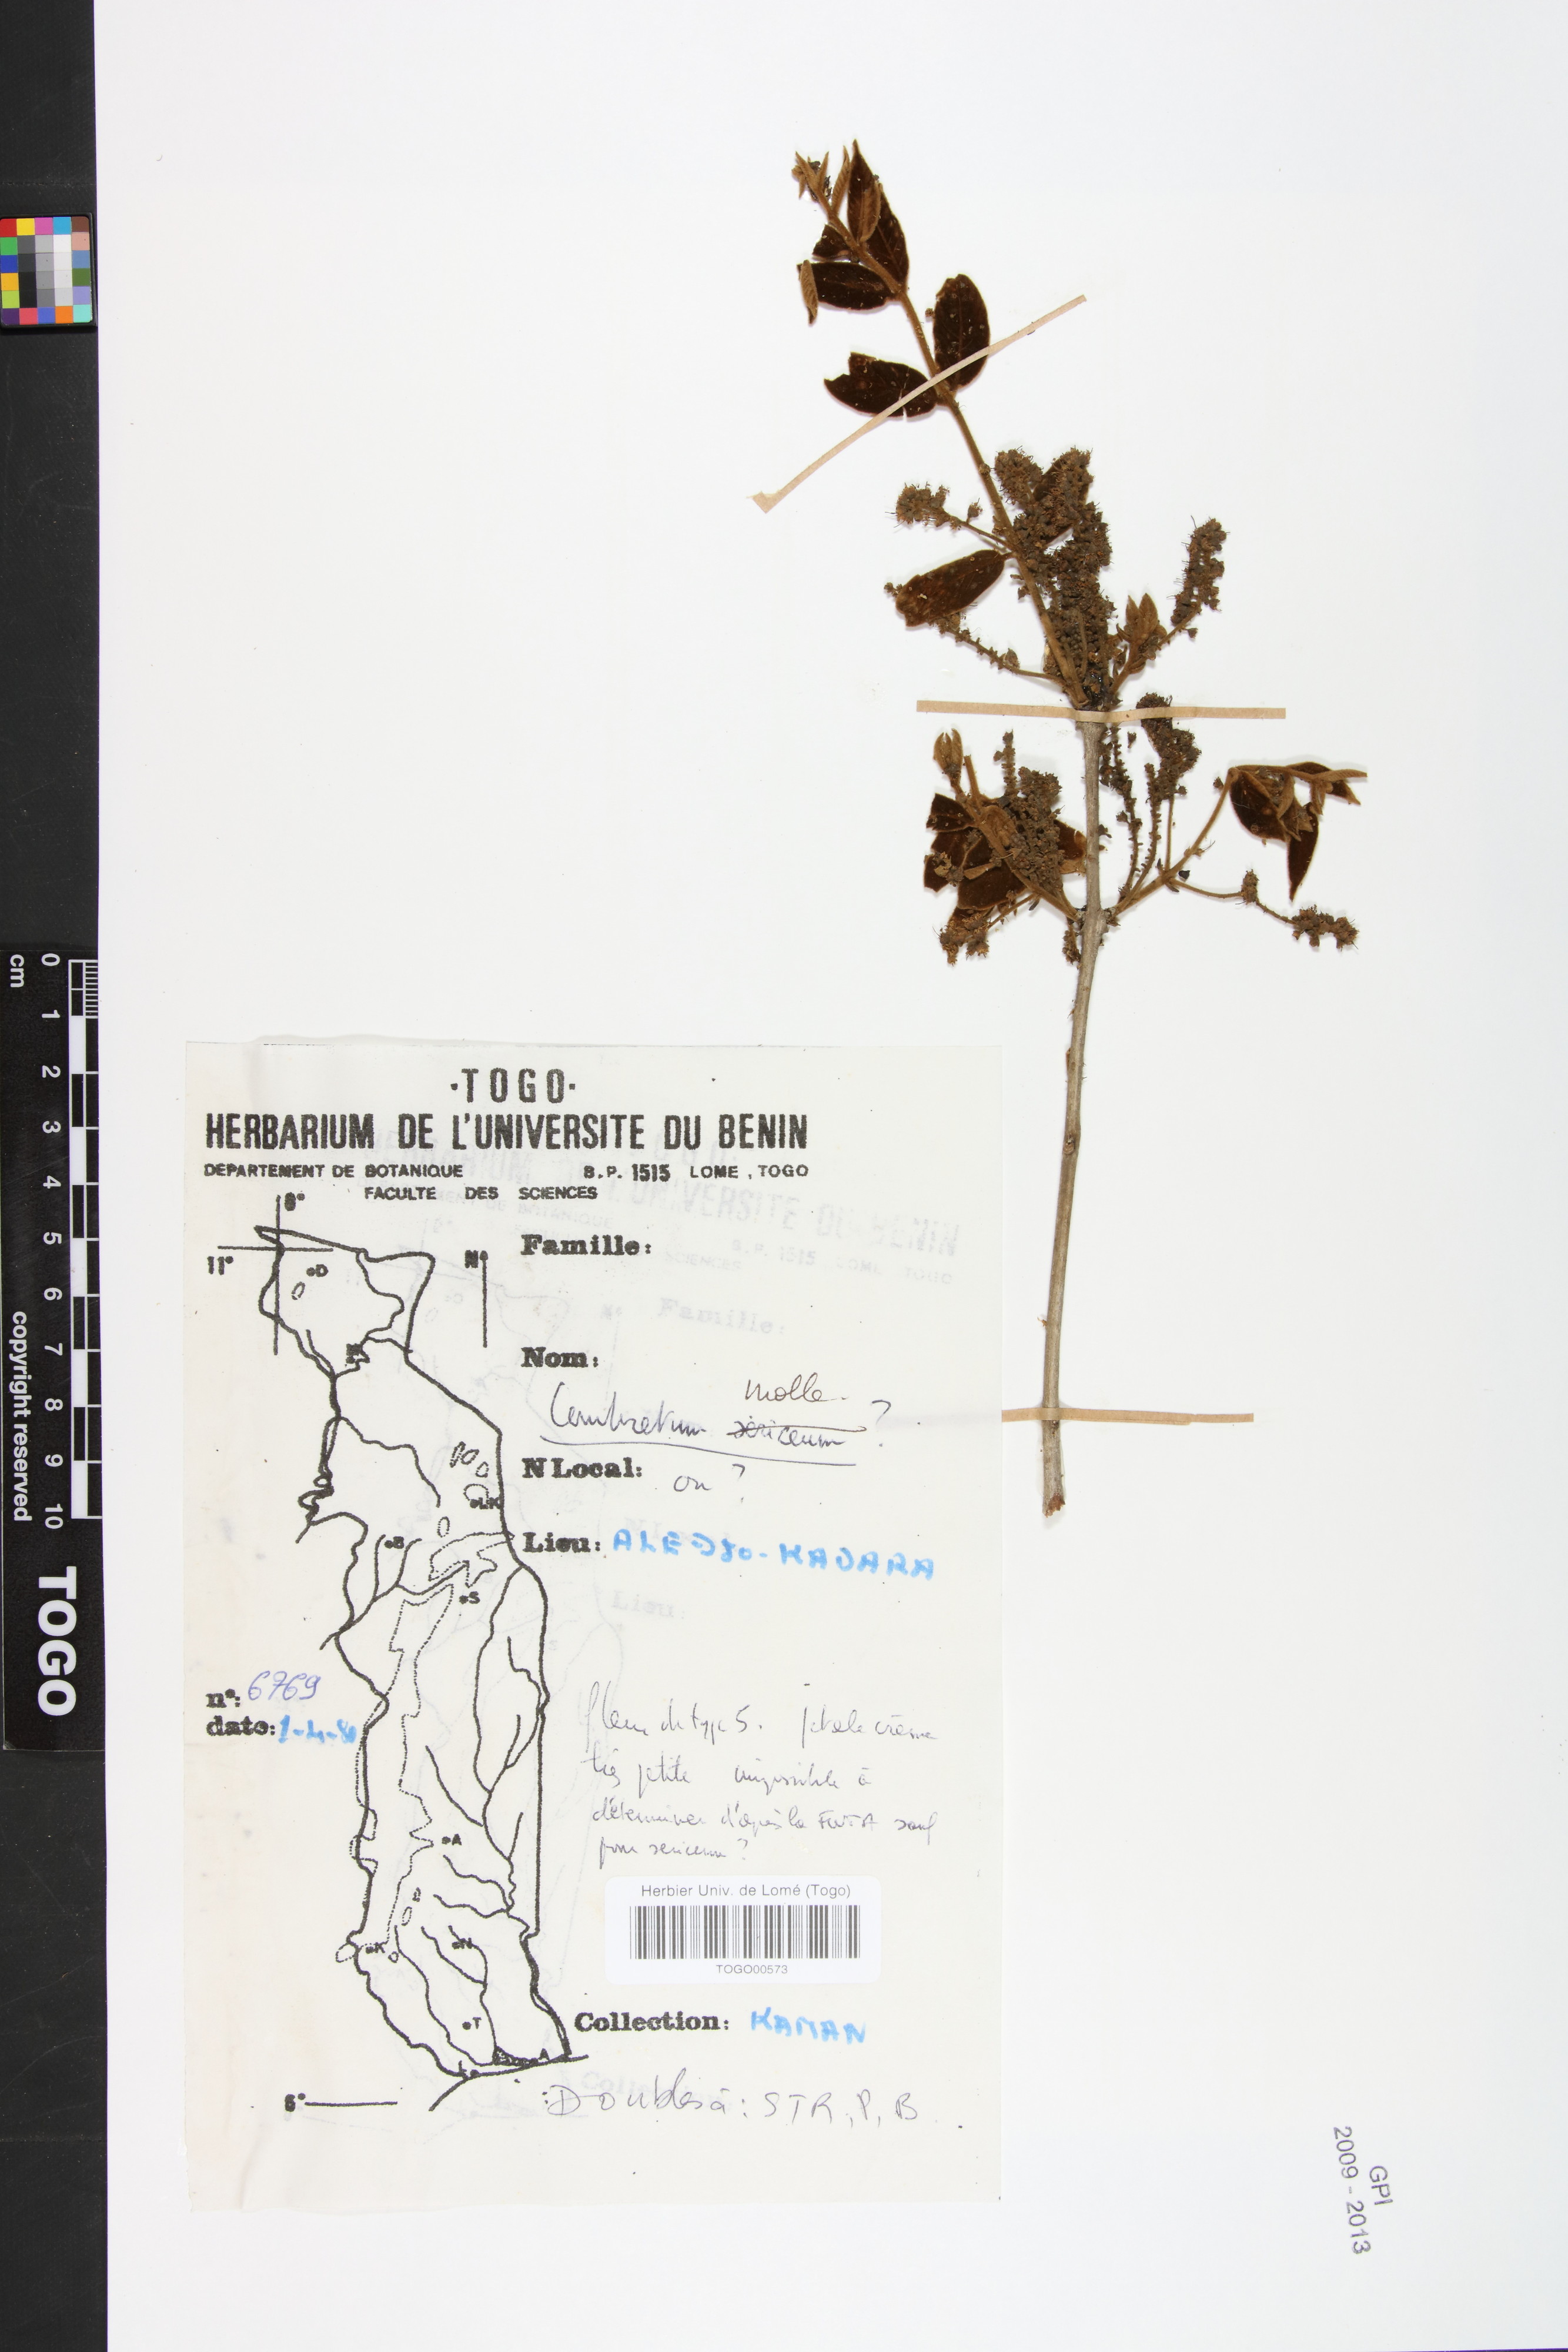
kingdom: Plantae
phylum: Tracheophyta
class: Magnoliopsida
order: Myrtales
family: Combretaceae
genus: Combretum
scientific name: Combretum molle
